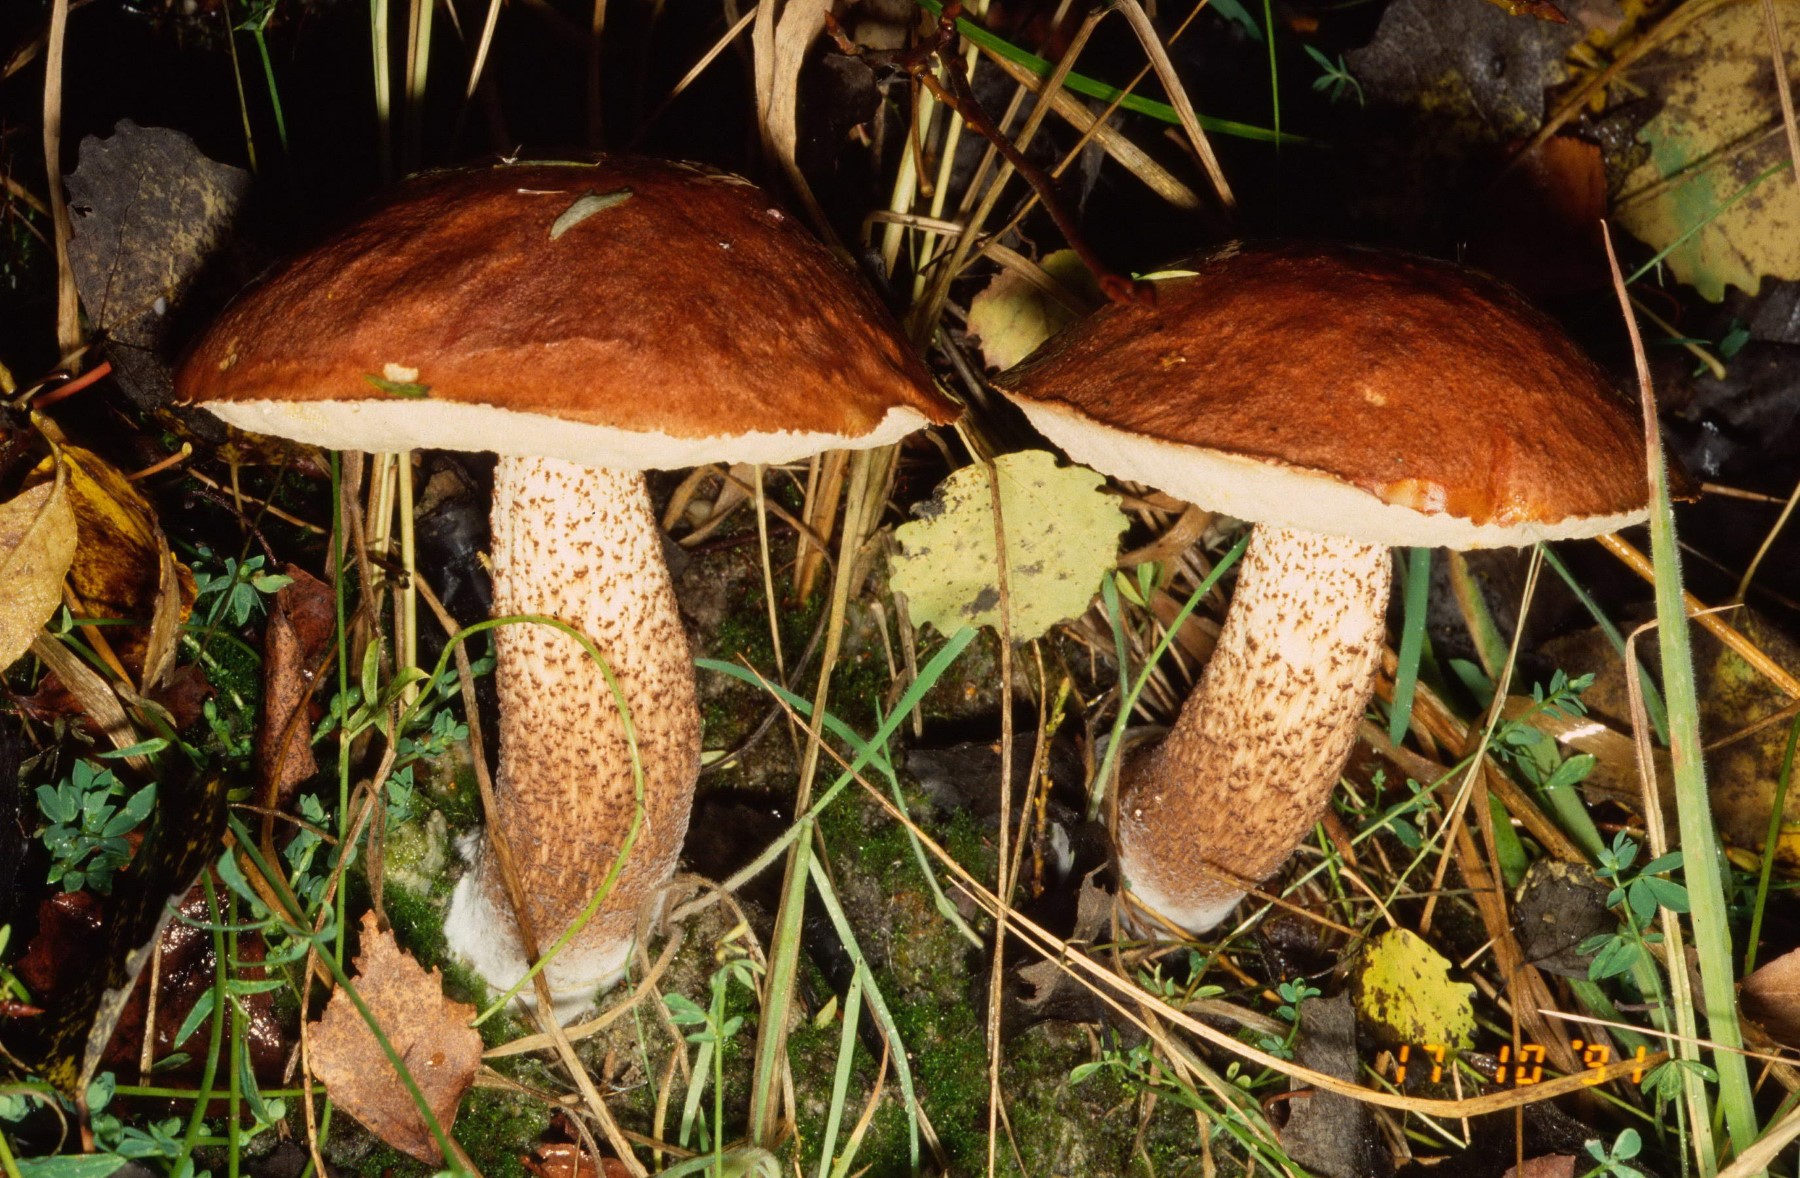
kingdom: Fungi
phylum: Basidiomycota
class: Agaricomycetes
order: Boletales
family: Boletaceae
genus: Leccinum
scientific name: Leccinum aurantiacum
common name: rustrød skælrørhat
